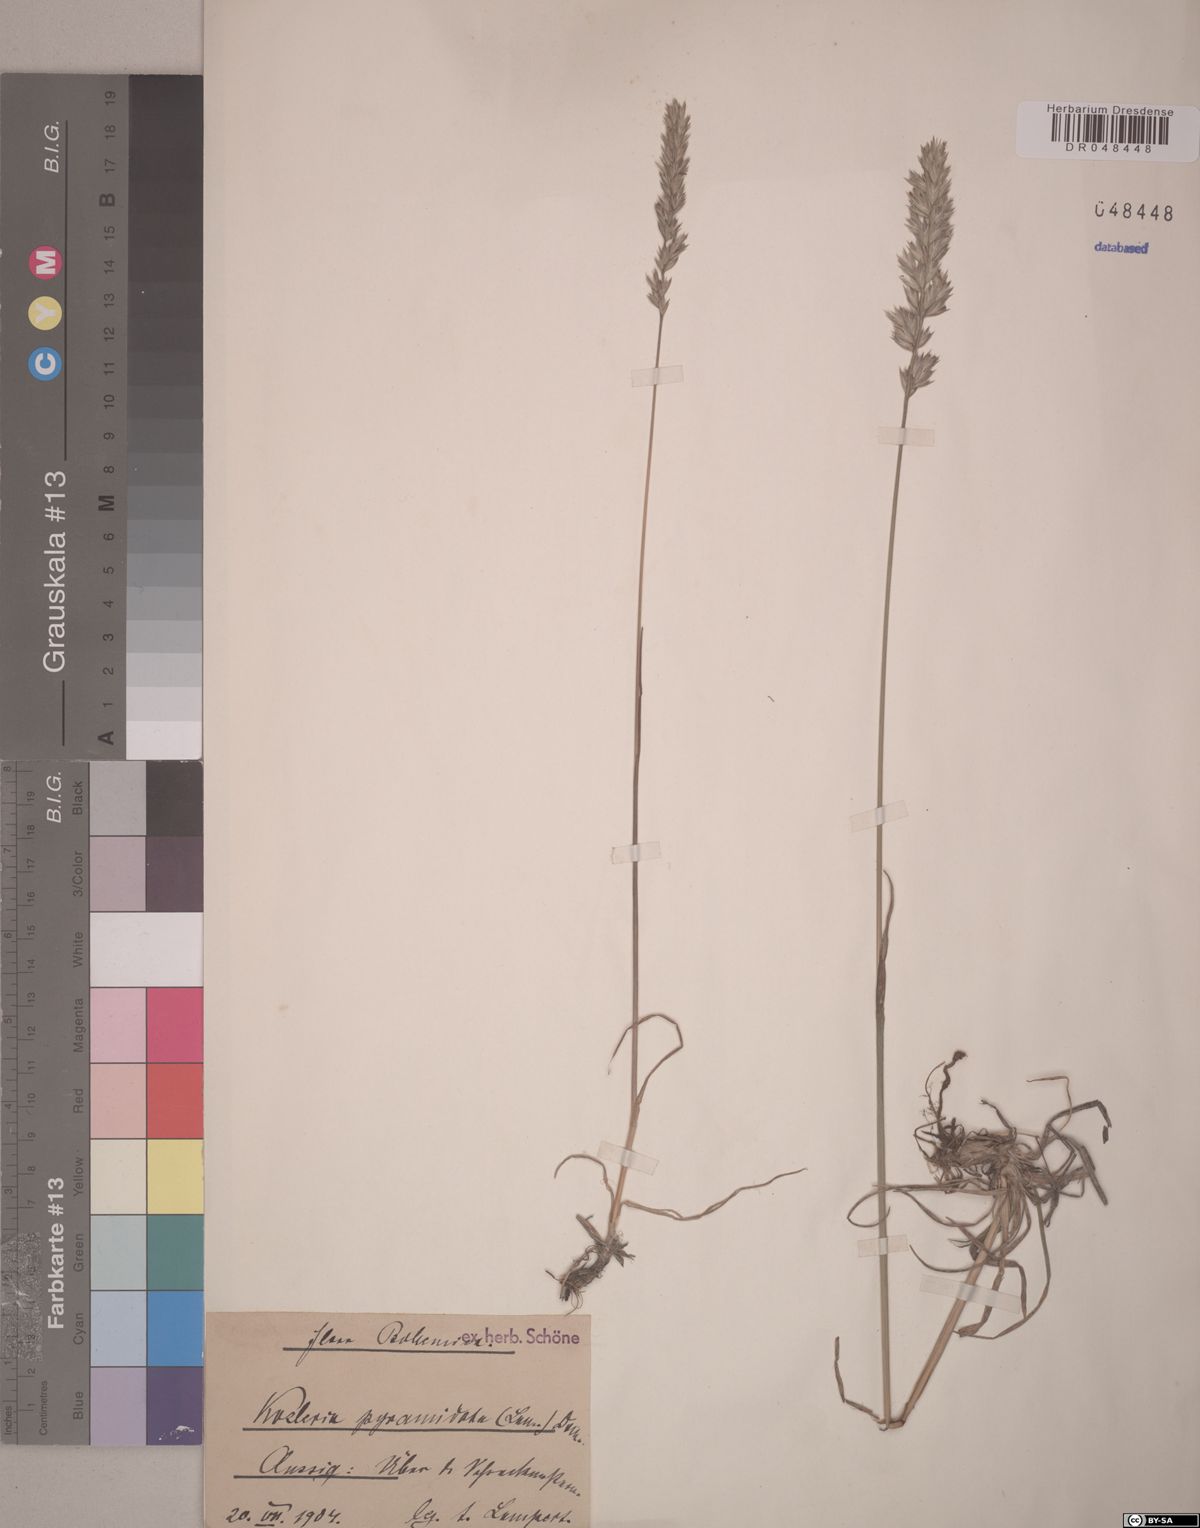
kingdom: Plantae
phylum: Tracheophyta
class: Liliopsida
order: Poales
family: Poaceae
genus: Koeleria
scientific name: Koeleria pyramidata
